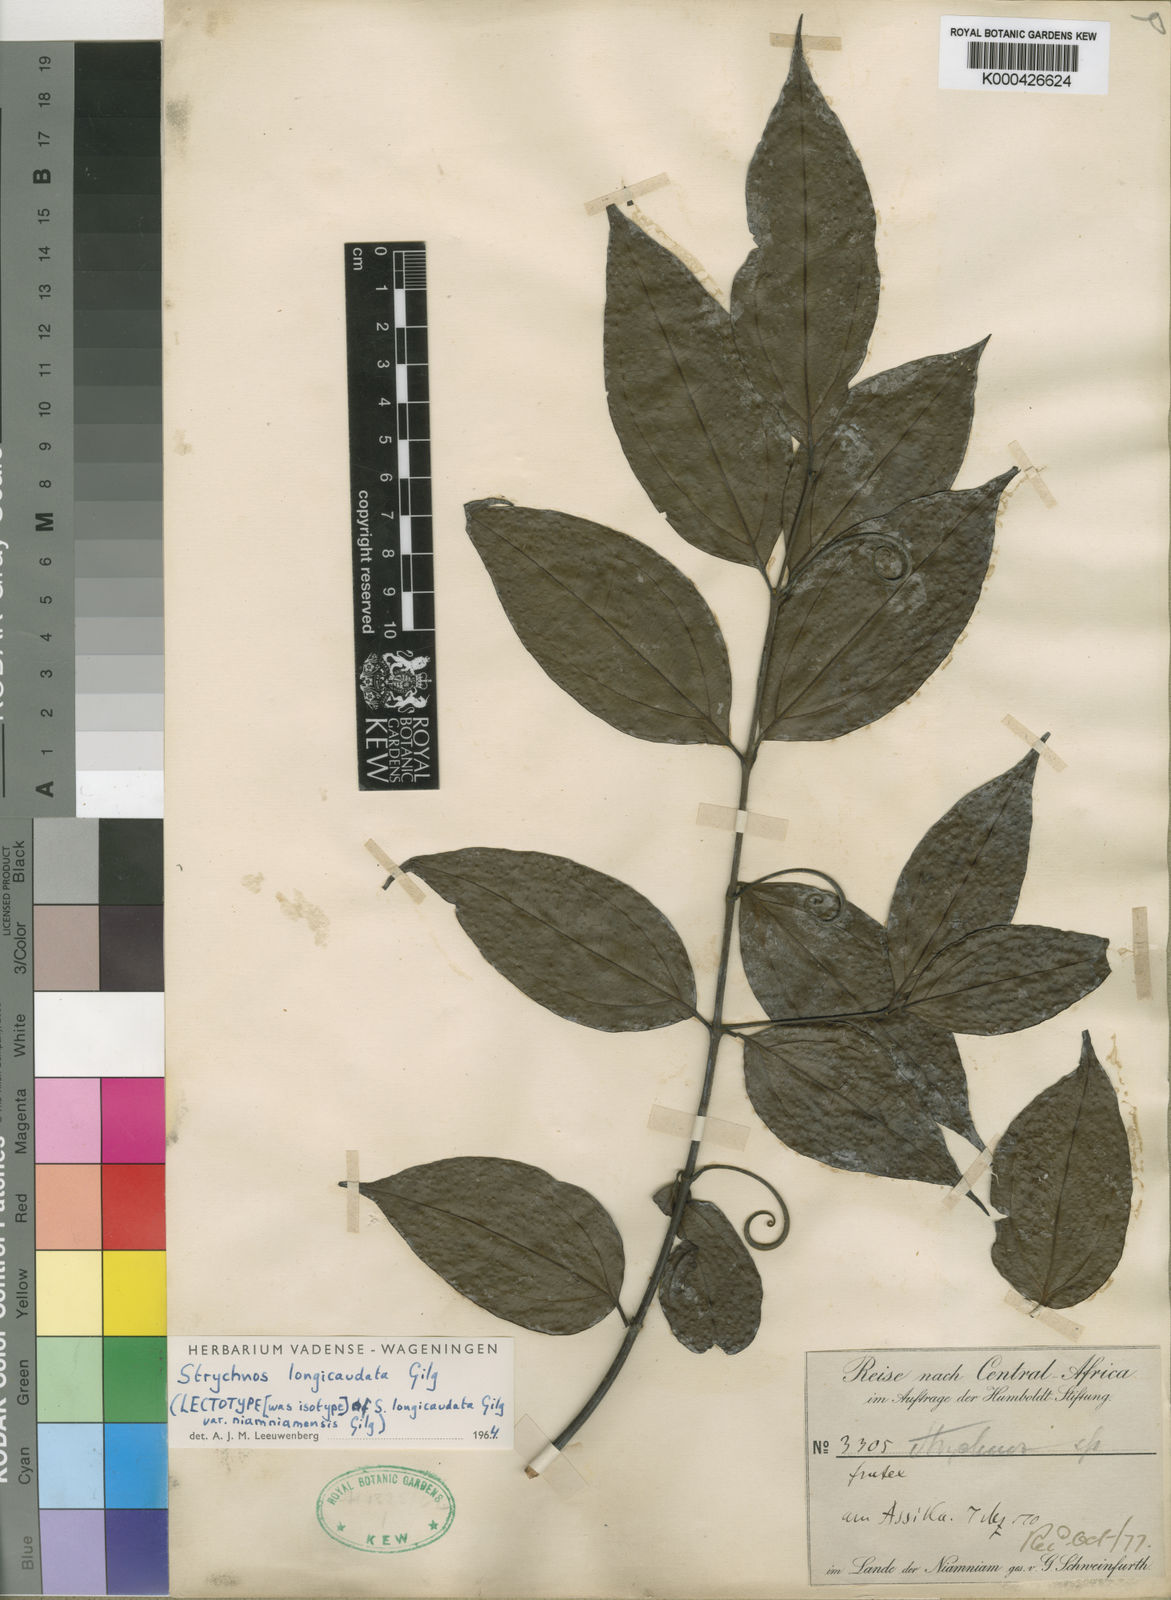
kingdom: Plantae
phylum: Tracheophyta
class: Magnoliopsida
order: Gentianales
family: Loganiaceae
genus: Strychnos
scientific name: Strychnos longicaudata
